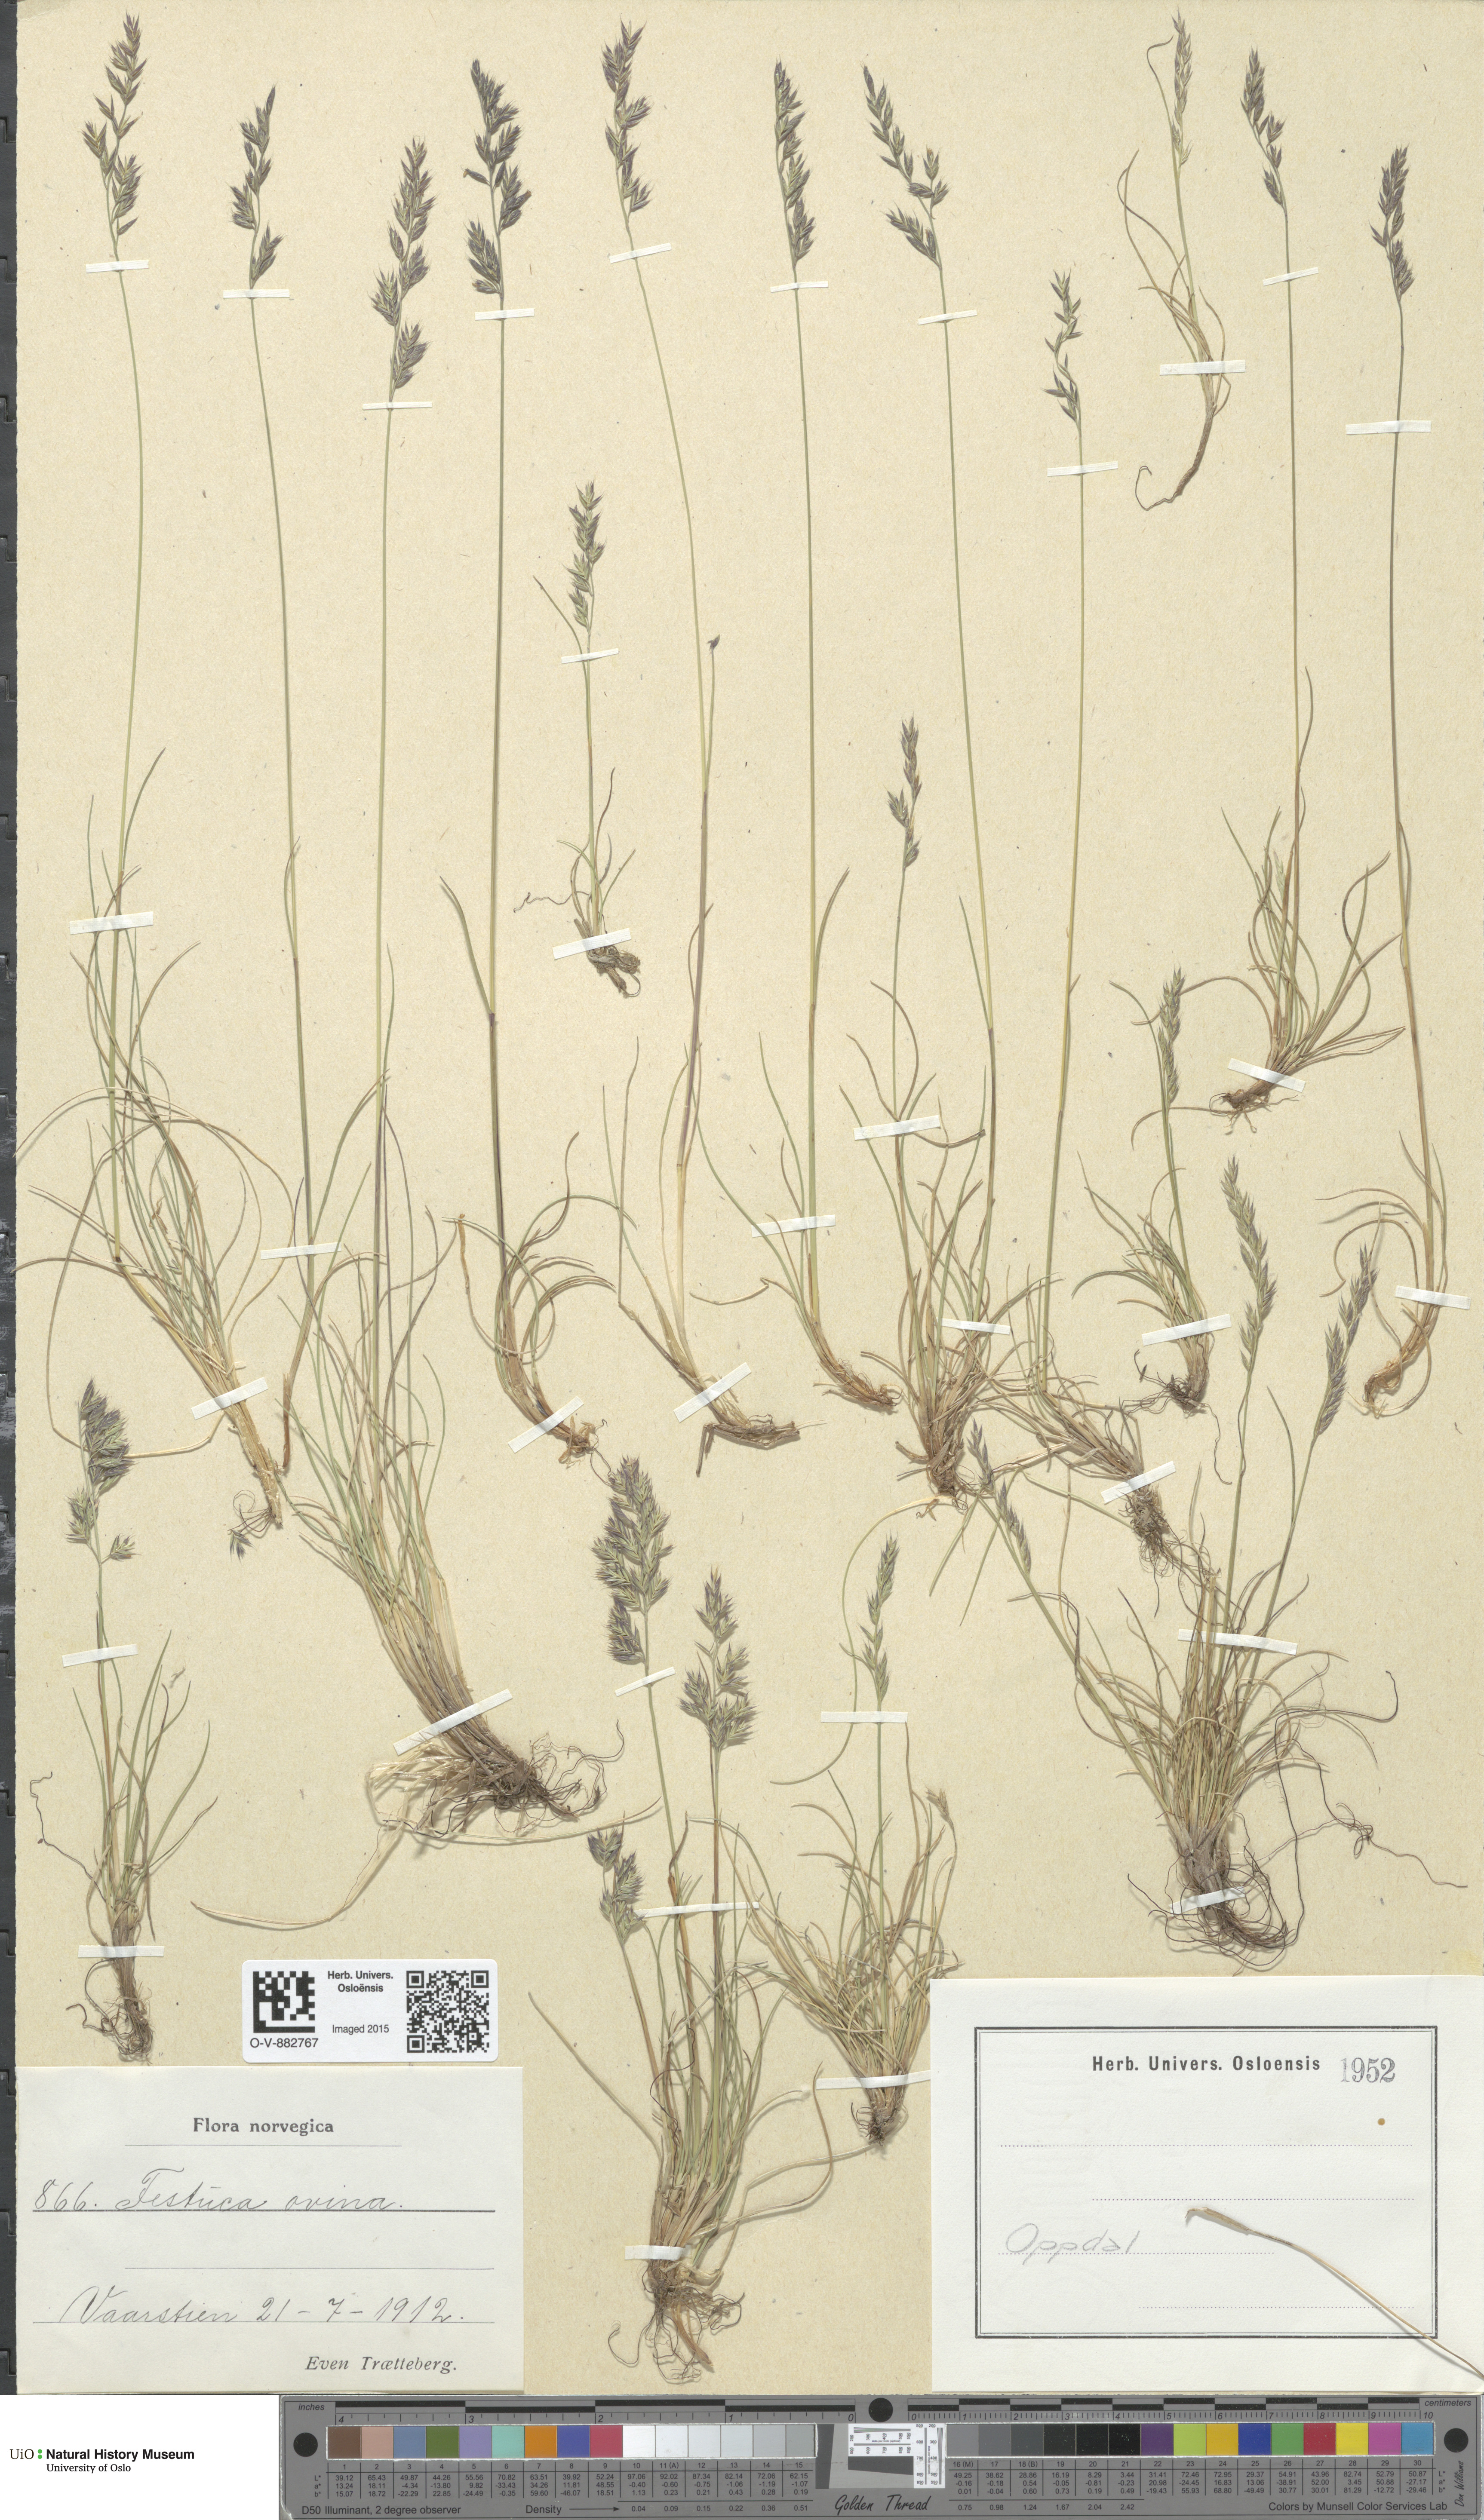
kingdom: Plantae
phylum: Tracheophyta
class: Liliopsida
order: Poales
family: Poaceae
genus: Festuca
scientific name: Festuca ovina
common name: Sheep fescue
